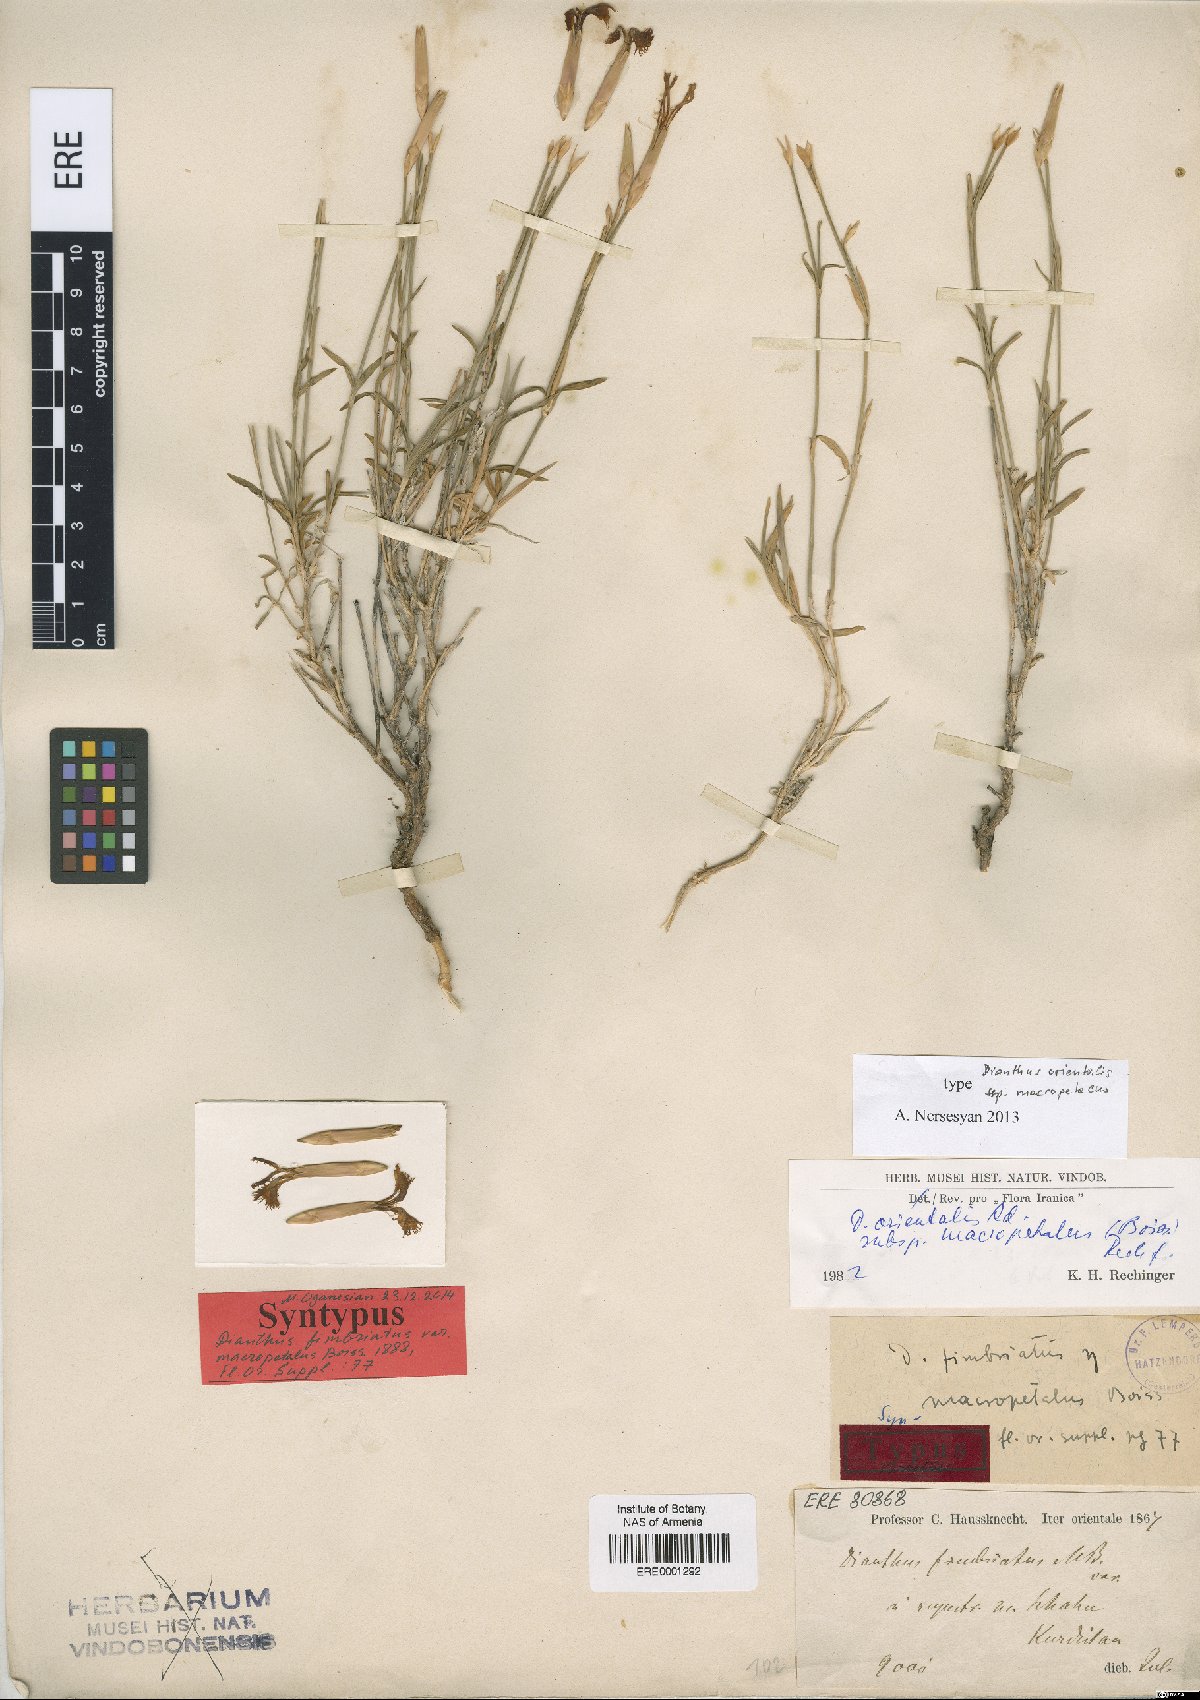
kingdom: Plantae
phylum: Tracheophyta
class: Magnoliopsida
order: Caryophyllales
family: Caryophyllaceae
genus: Dianthus
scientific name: Dianthus orientalis
